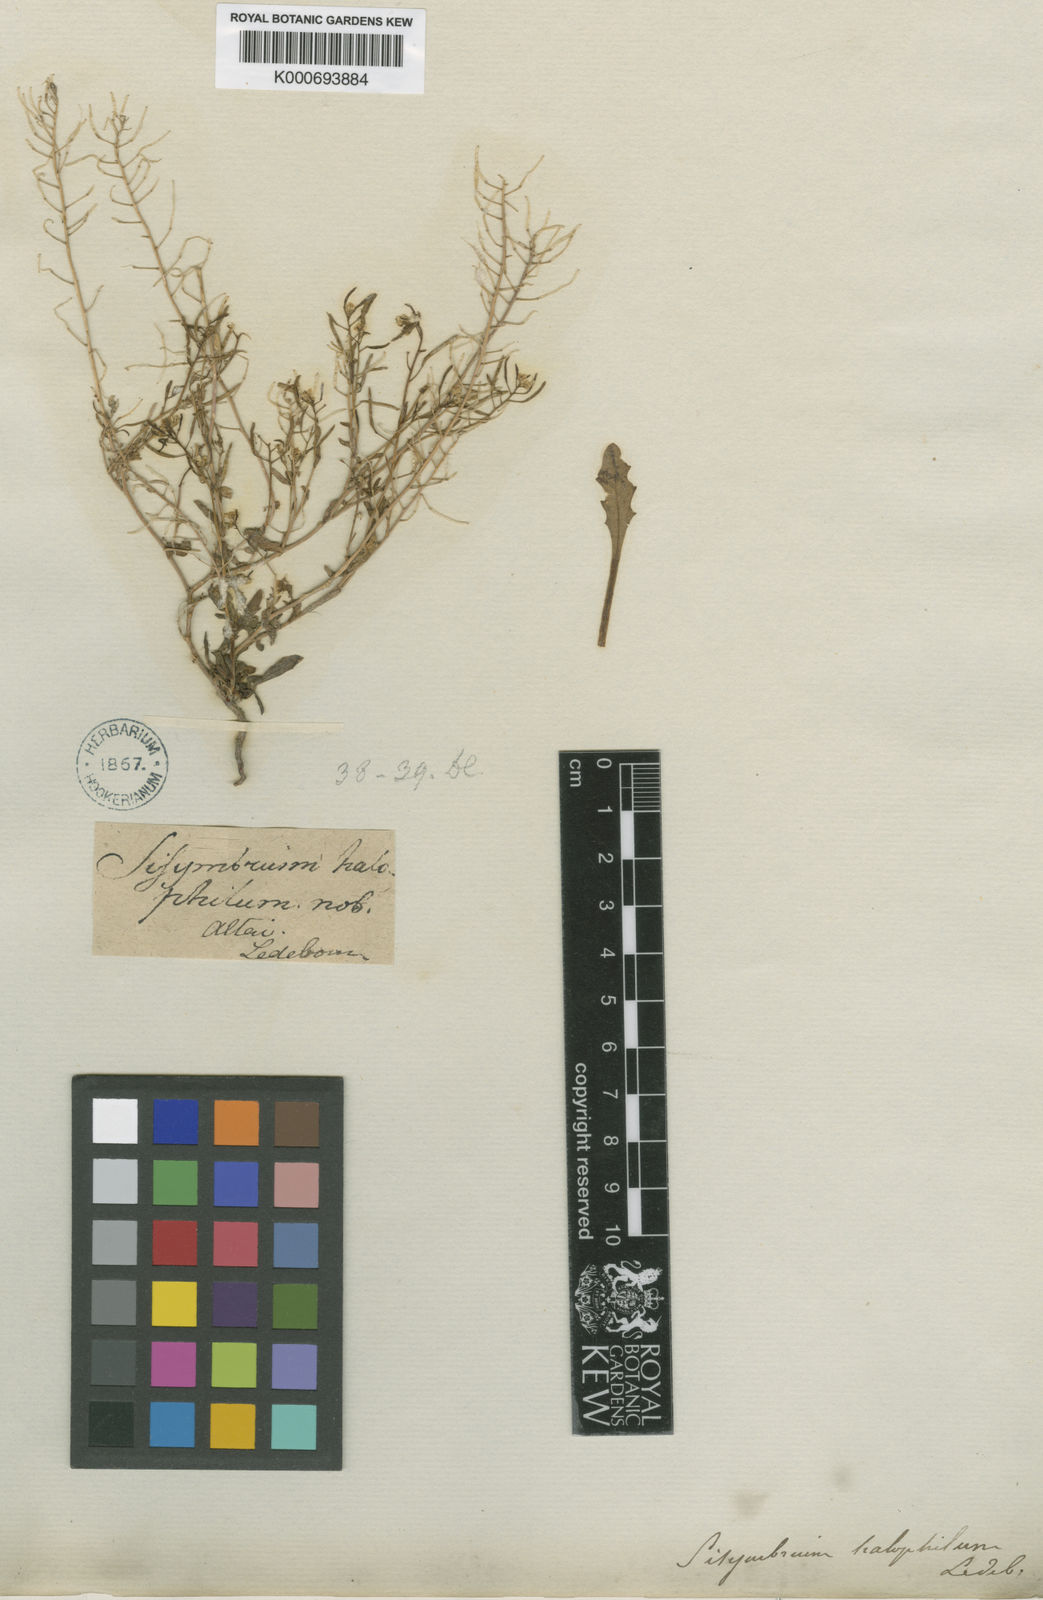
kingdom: Plantae
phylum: Tracheophyta
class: Magnoliopsida
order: Brassicales
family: Brassicaceae
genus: Thelypodium
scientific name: Thelypodium
